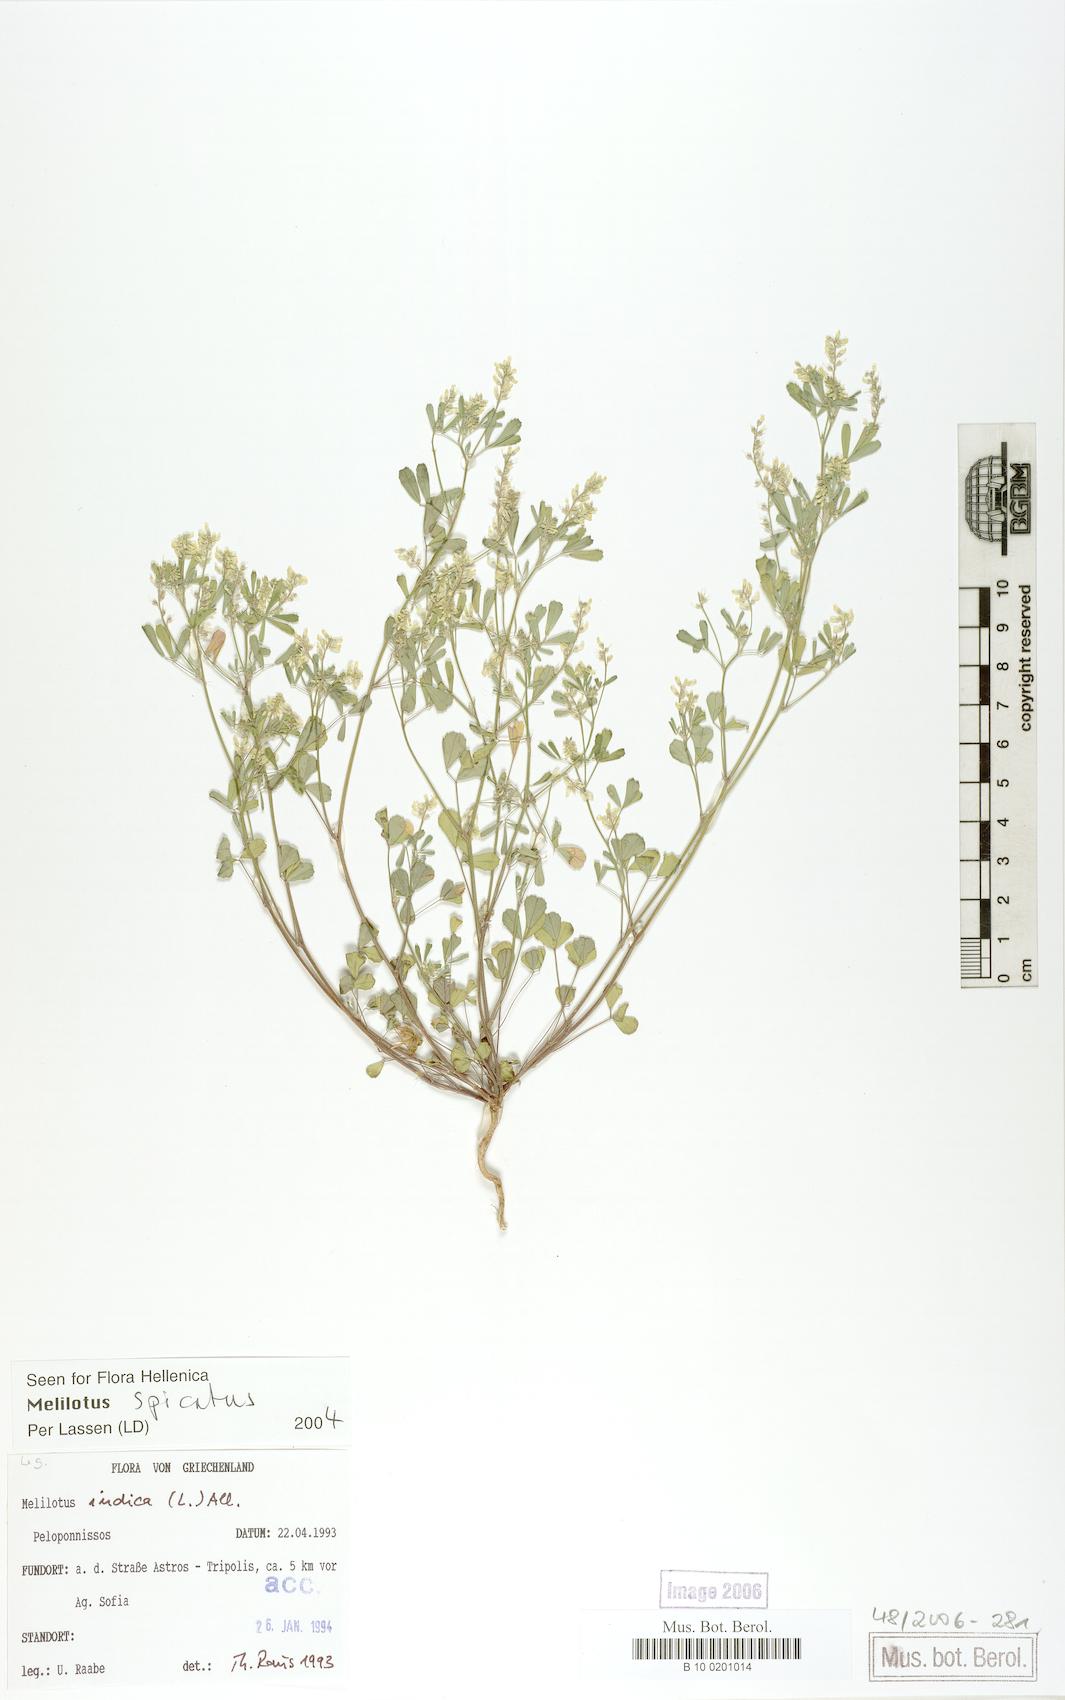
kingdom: Plantae
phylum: Tracheophyta
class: Magnoliopsida
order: Fabales
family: Fabaceae
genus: Melilotus
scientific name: Melilotus neapolitanus
